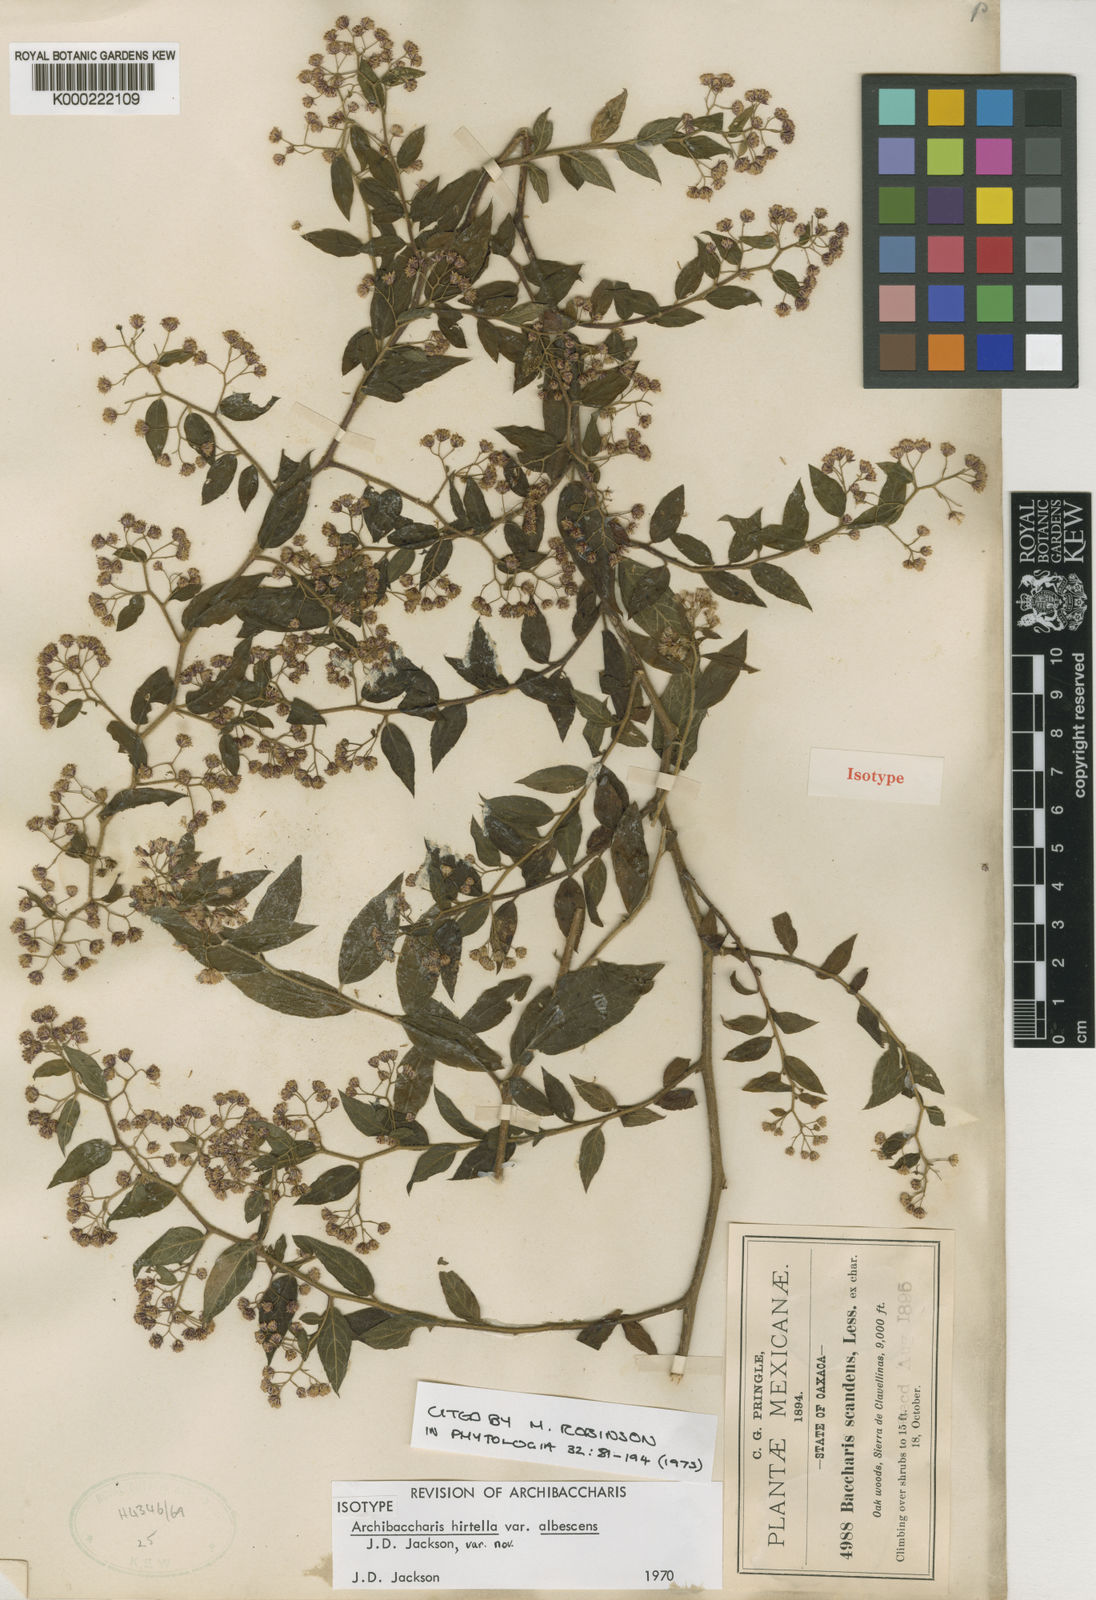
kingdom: Plantae
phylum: Tracheophyta
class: Magnoliopsida
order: Asterales
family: Asteraceae
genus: Archibaccharis
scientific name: Archibaccharis albescens
